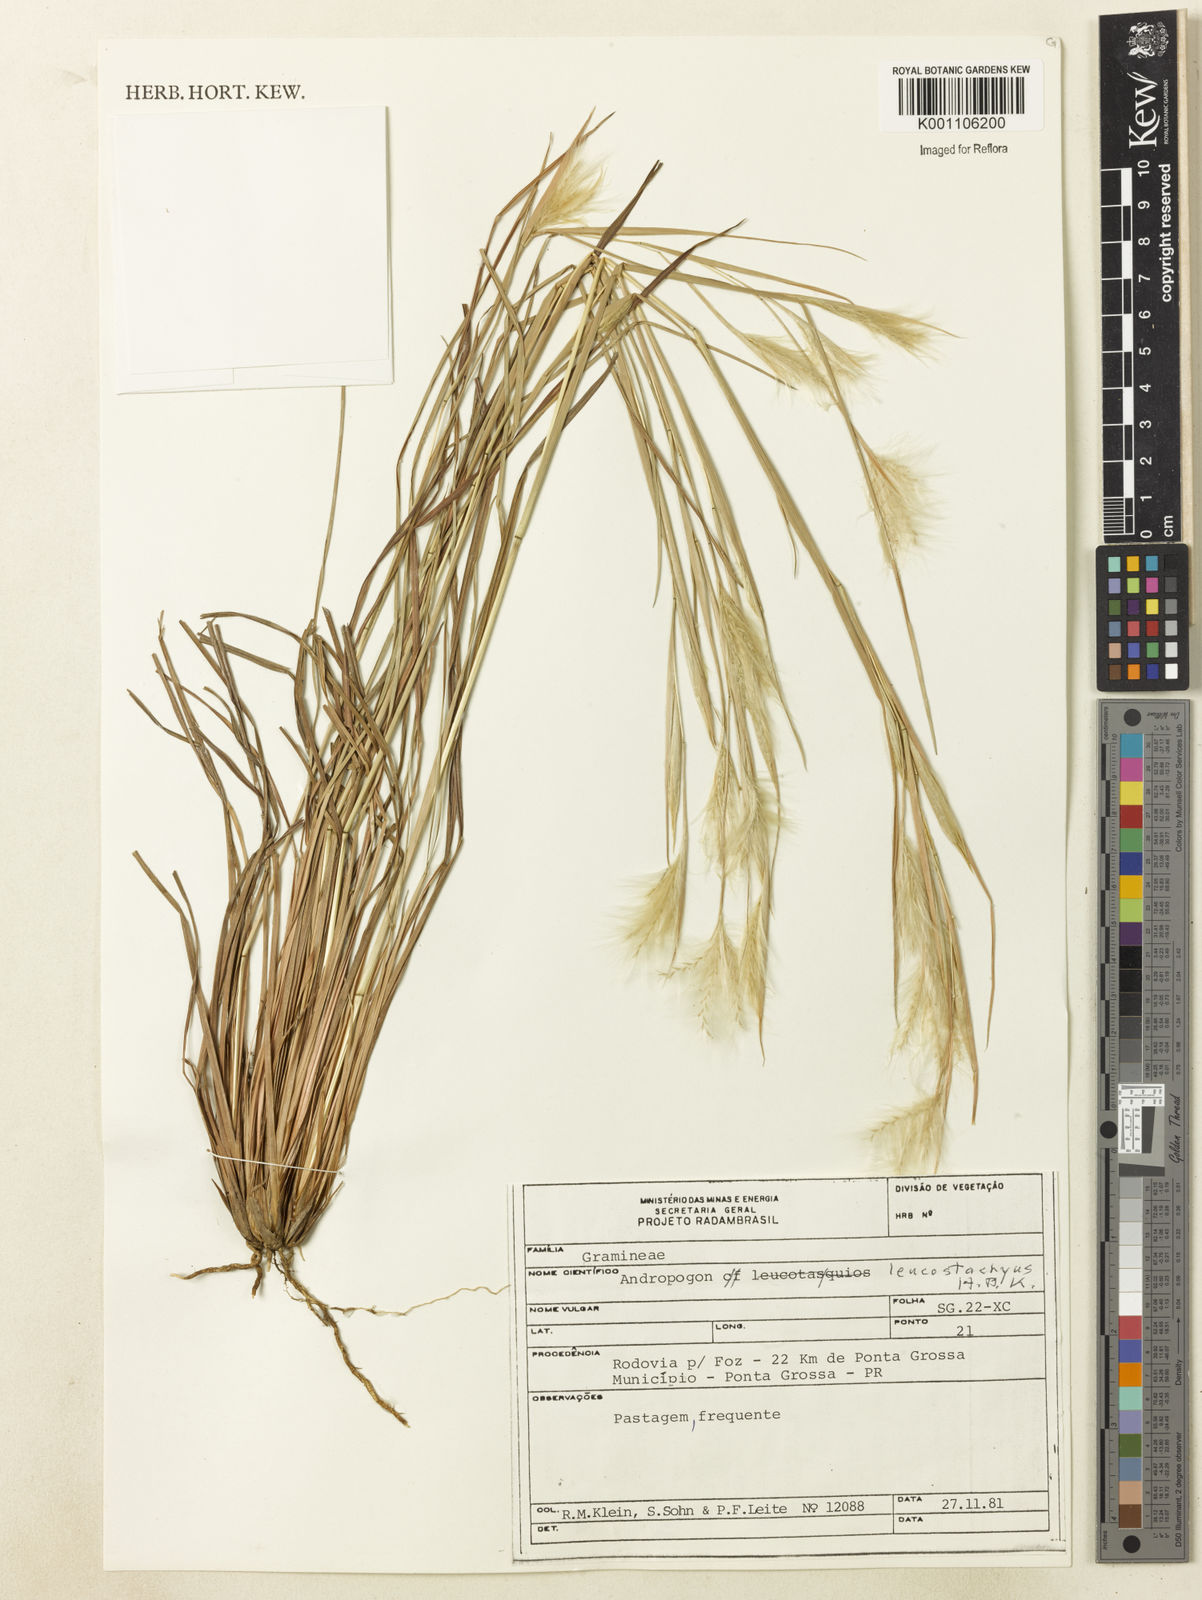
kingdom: Plantae
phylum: Tracheophyta
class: Liliopsida
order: Poales
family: Poaceae
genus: Andropogon
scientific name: Andropogon leucostachyus
